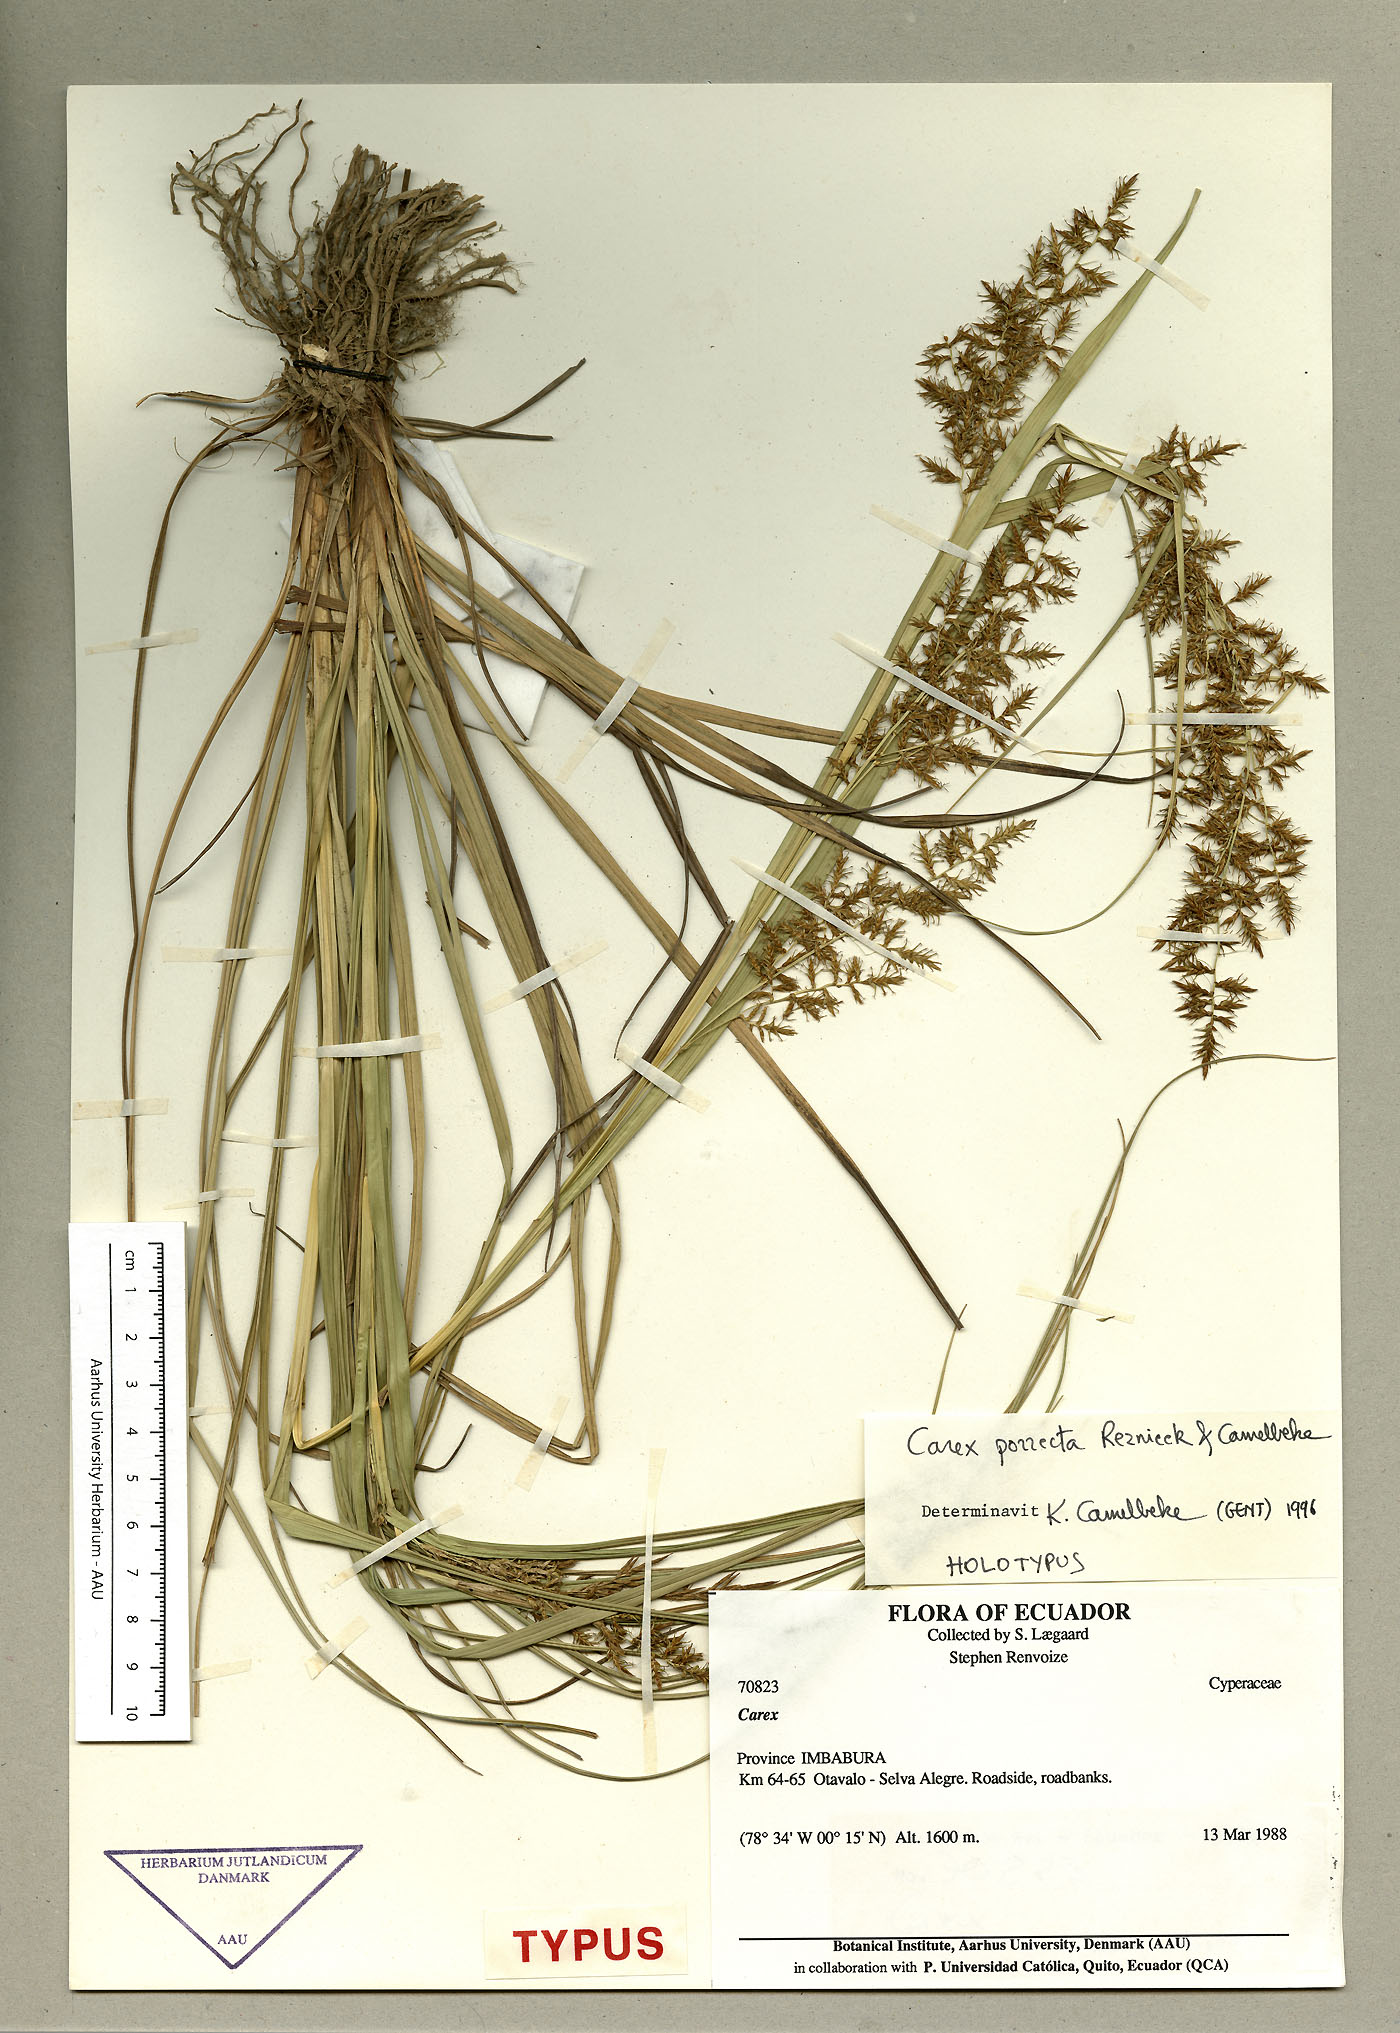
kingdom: Plantae
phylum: Tracheophyta
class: Liliopsida
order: Poales
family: Cyperaceae
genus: Carex
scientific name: Carex porrecta
